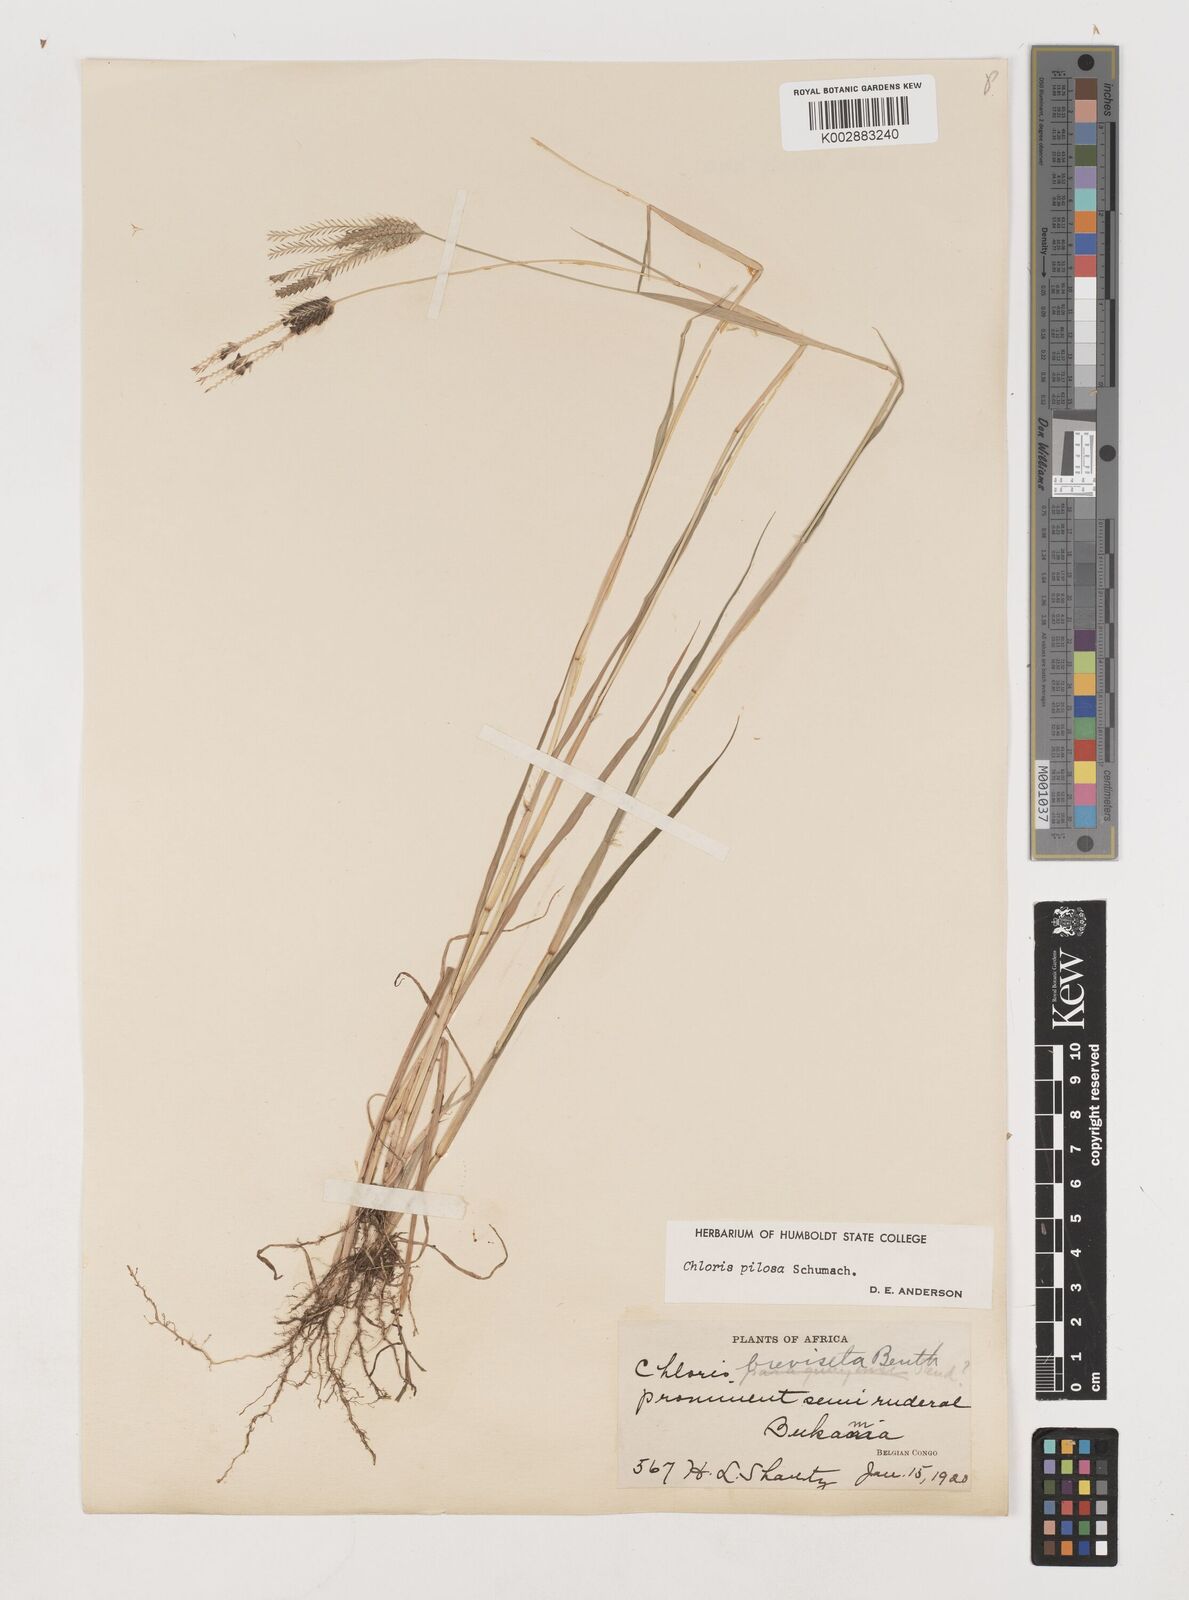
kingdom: Plantae
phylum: Tracheophyta
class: Liliopsida
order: Poales
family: Poaceae
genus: Chloris
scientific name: Chloris pilosa
